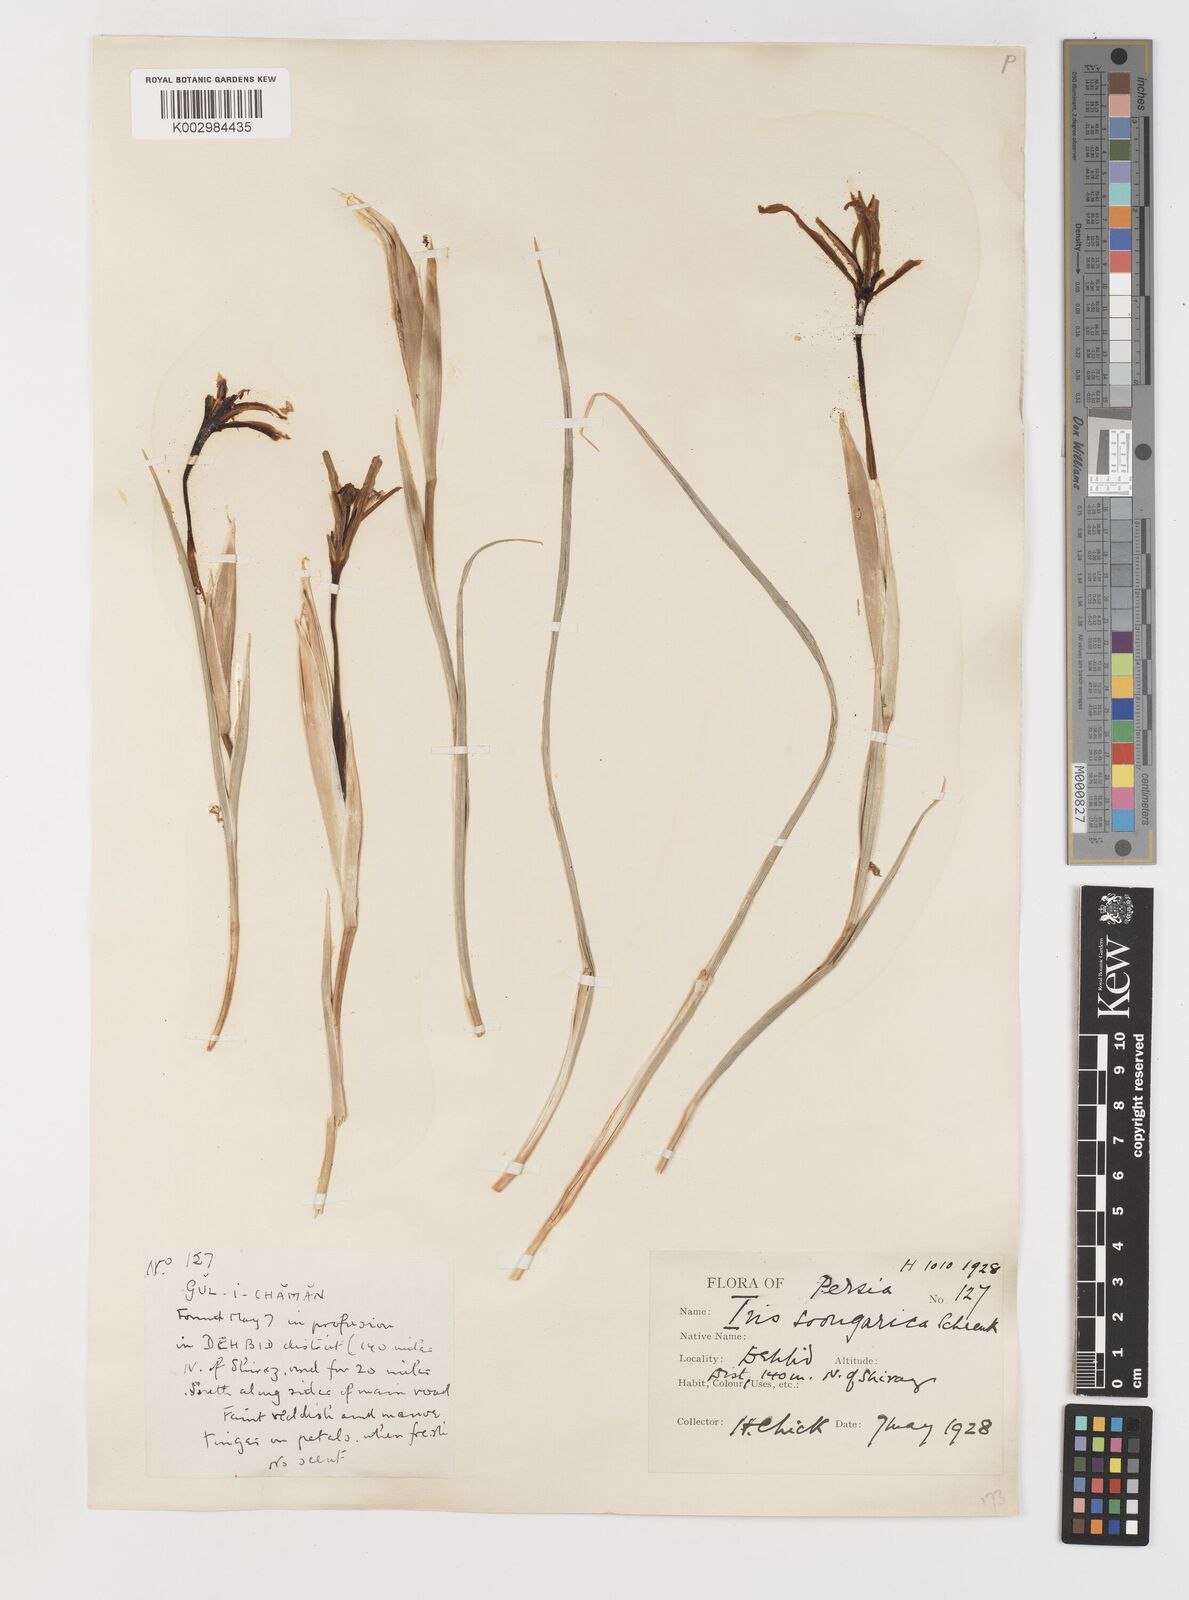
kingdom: Plantae
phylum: Tracheophyta
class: Liliopsida
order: Asparagales
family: Iridaceae
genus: Iris
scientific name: Iris songarica
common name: Songar iris
